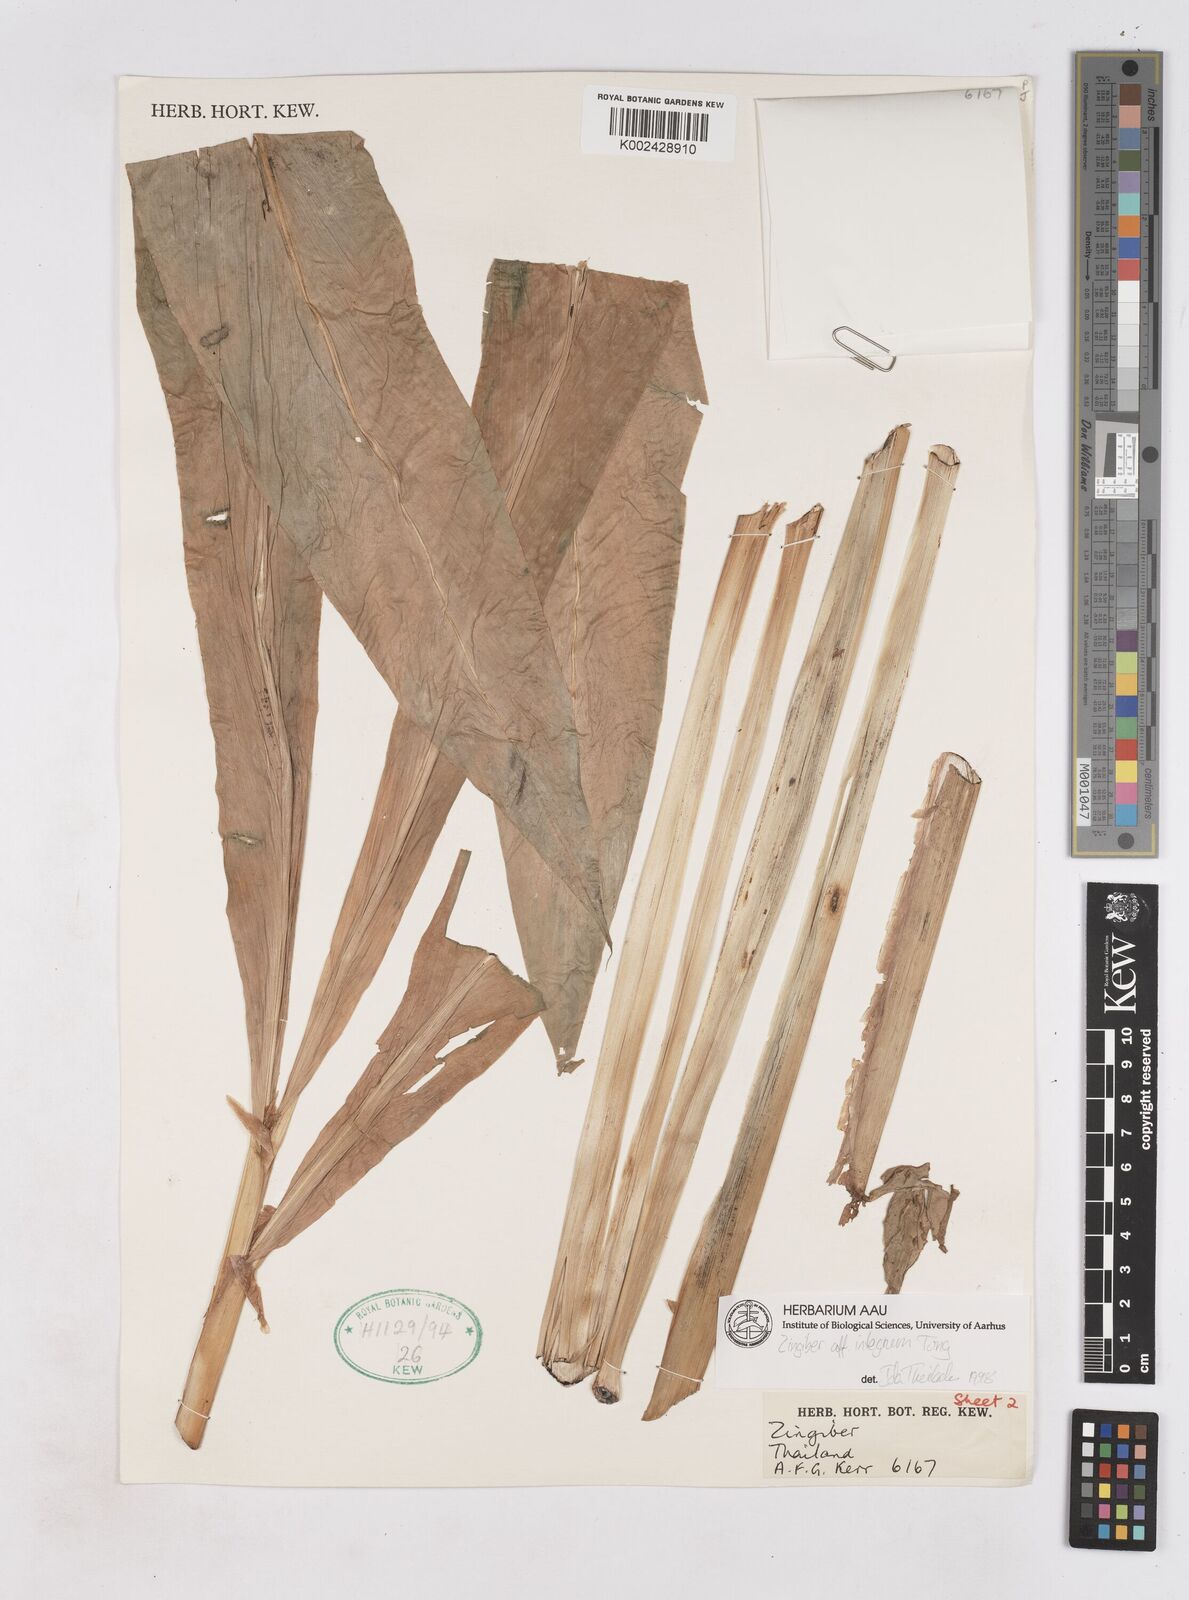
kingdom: Plantae
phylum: Tracheophyta
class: Liliopsida
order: Zingiberales
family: Zingiberaceae
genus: Zingiber
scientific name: Zingiber integrum
